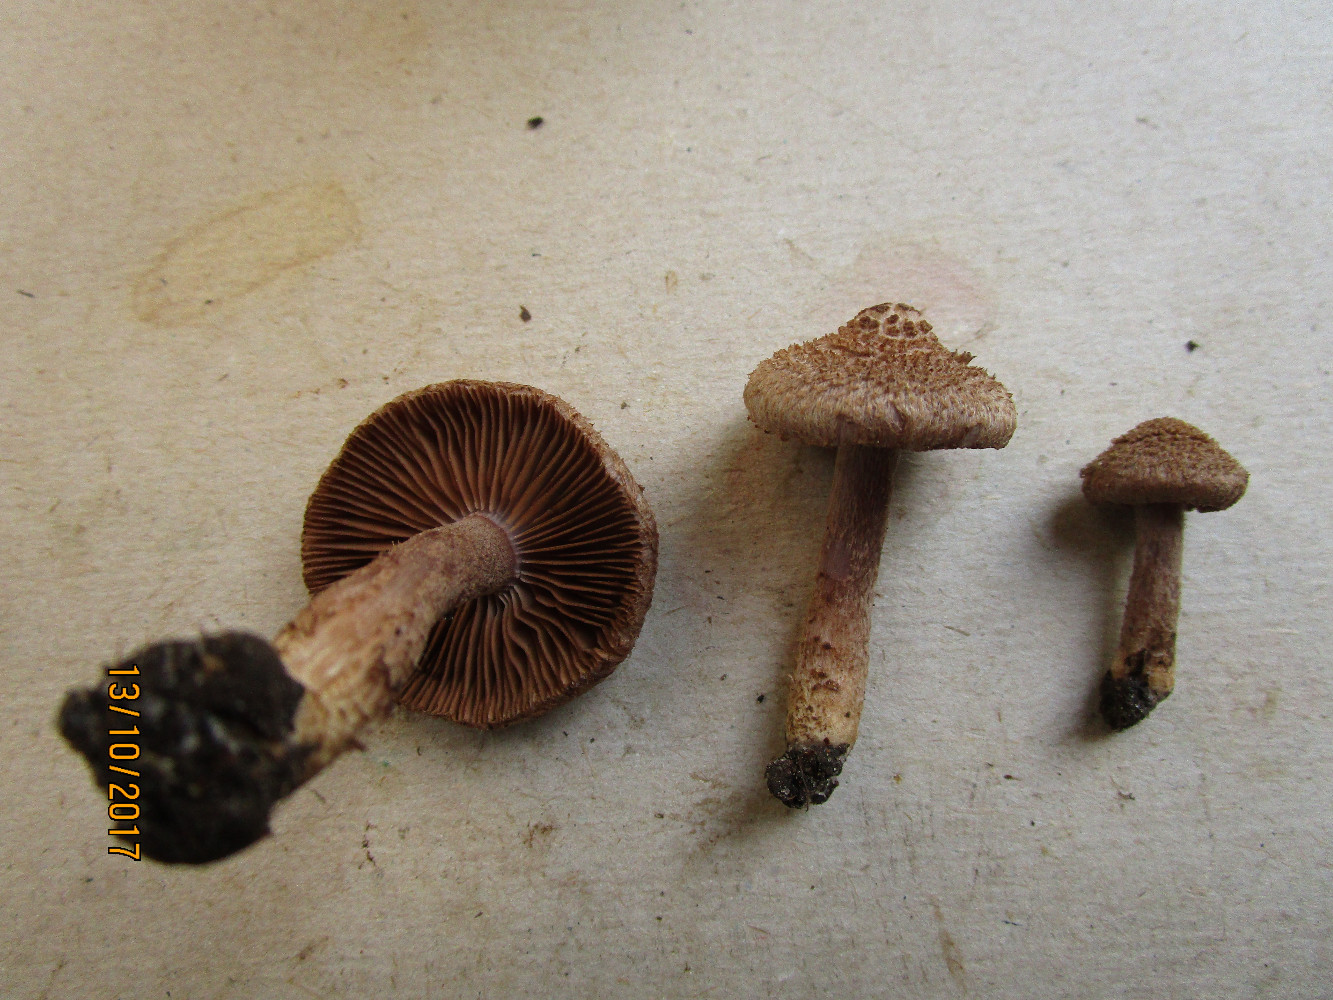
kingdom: Fungi
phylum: Basidiomycota
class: Agaricomycetes
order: Agaricales
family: Inocybaceae
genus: Inocybe
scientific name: Inocybe cincinnata
